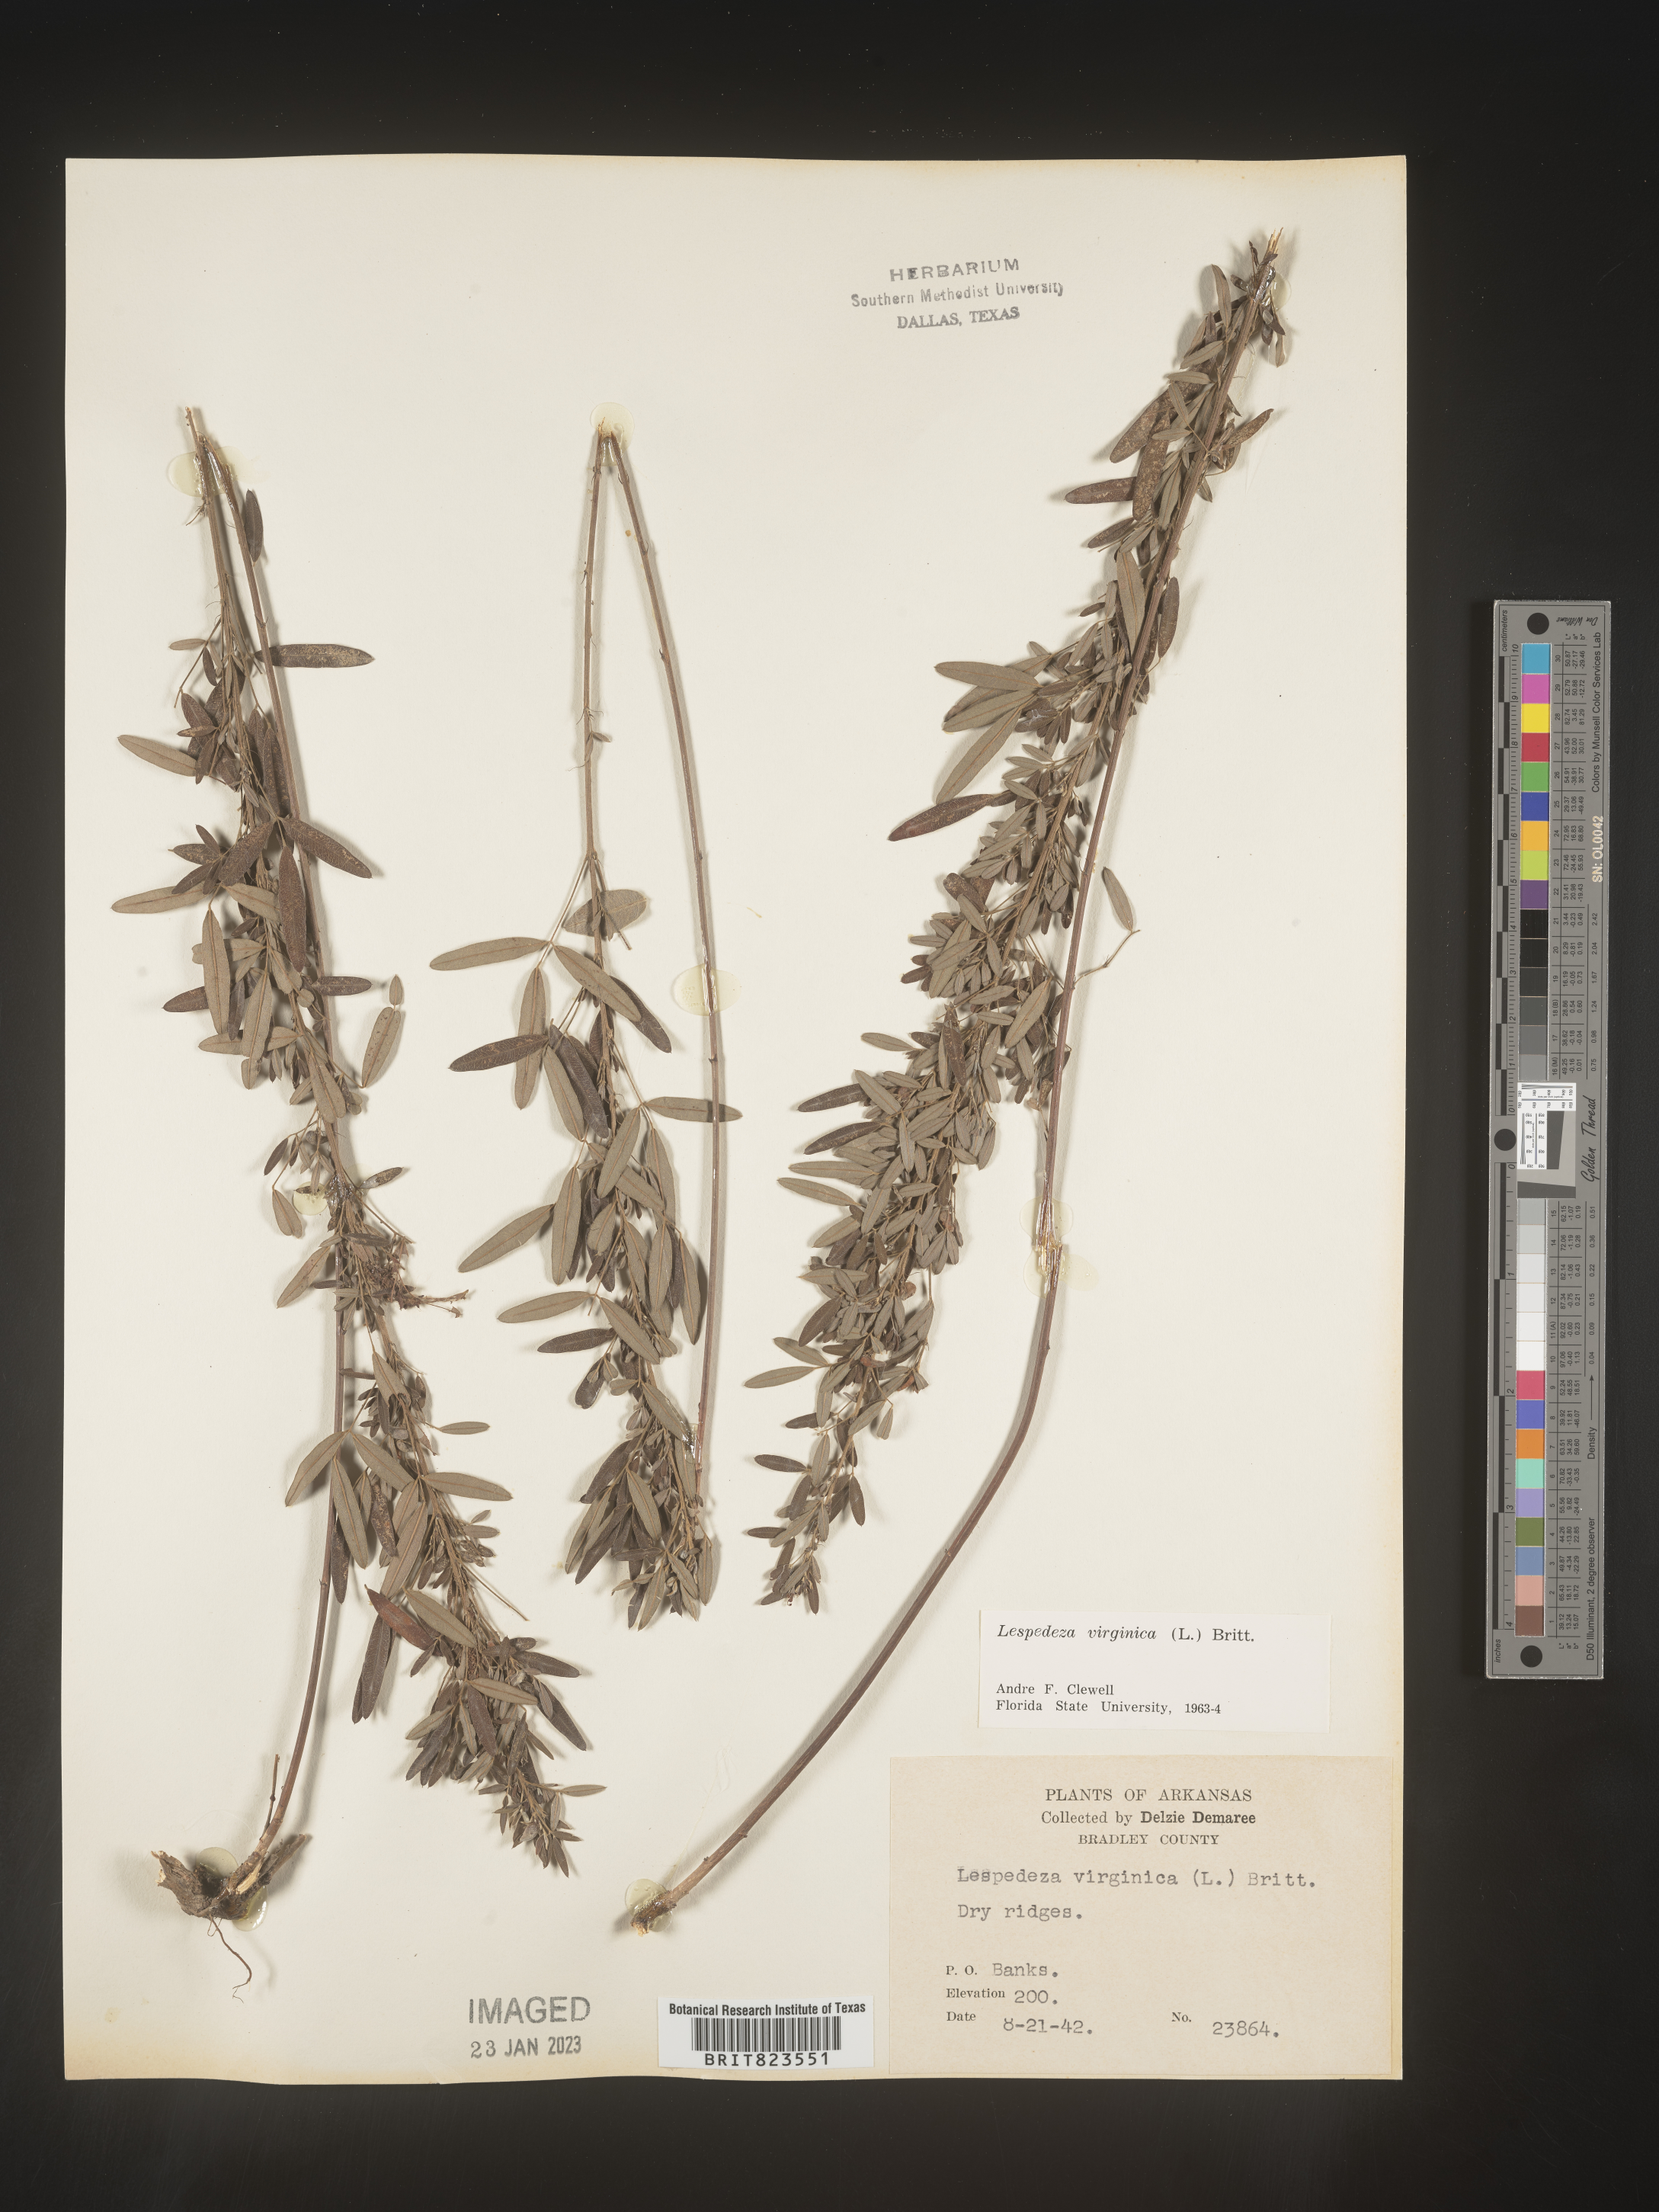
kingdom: Plantae
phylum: Tracheophyta
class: Magnoliopsida
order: Fabales
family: Fabaceae
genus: Lespedeza
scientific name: Lespedeza virginica
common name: Slender bush-clover
